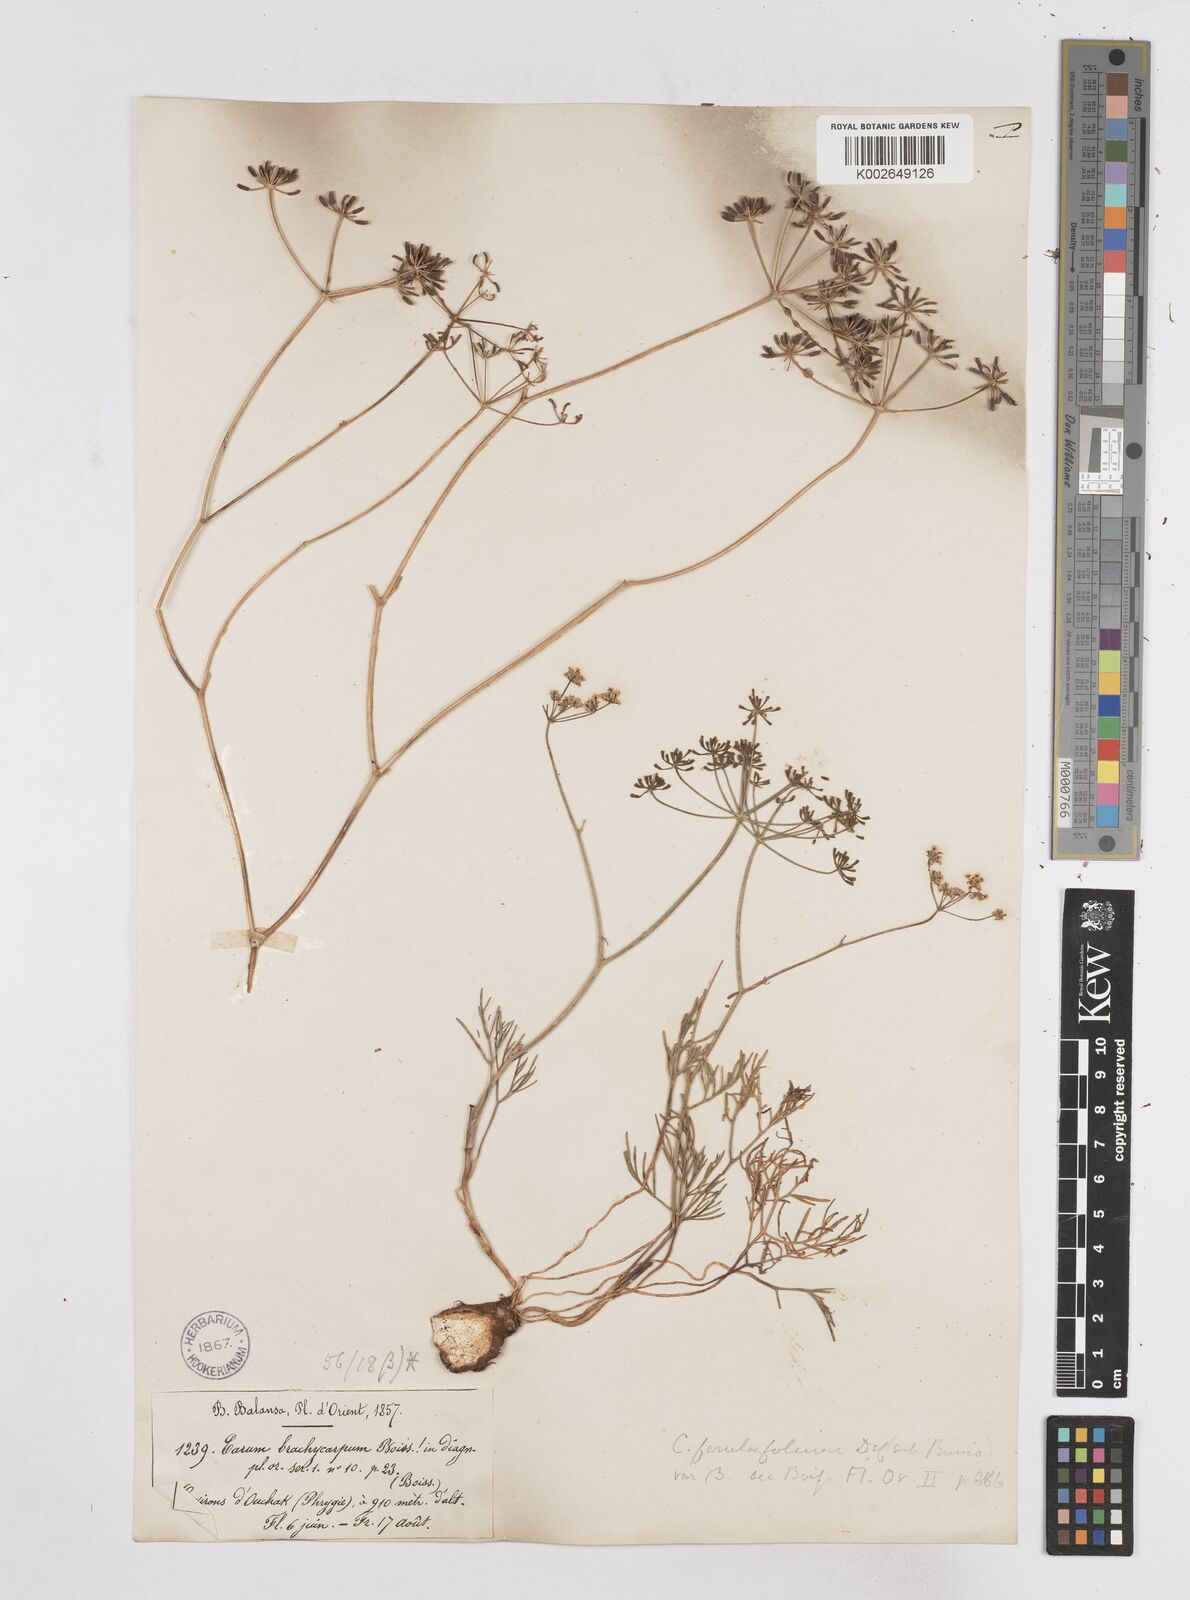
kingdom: Plantae
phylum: Tracheophyta
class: Magnoliopsida
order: Apiales
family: Apiaceae
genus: Bunium
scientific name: Bunium ferulaceum
